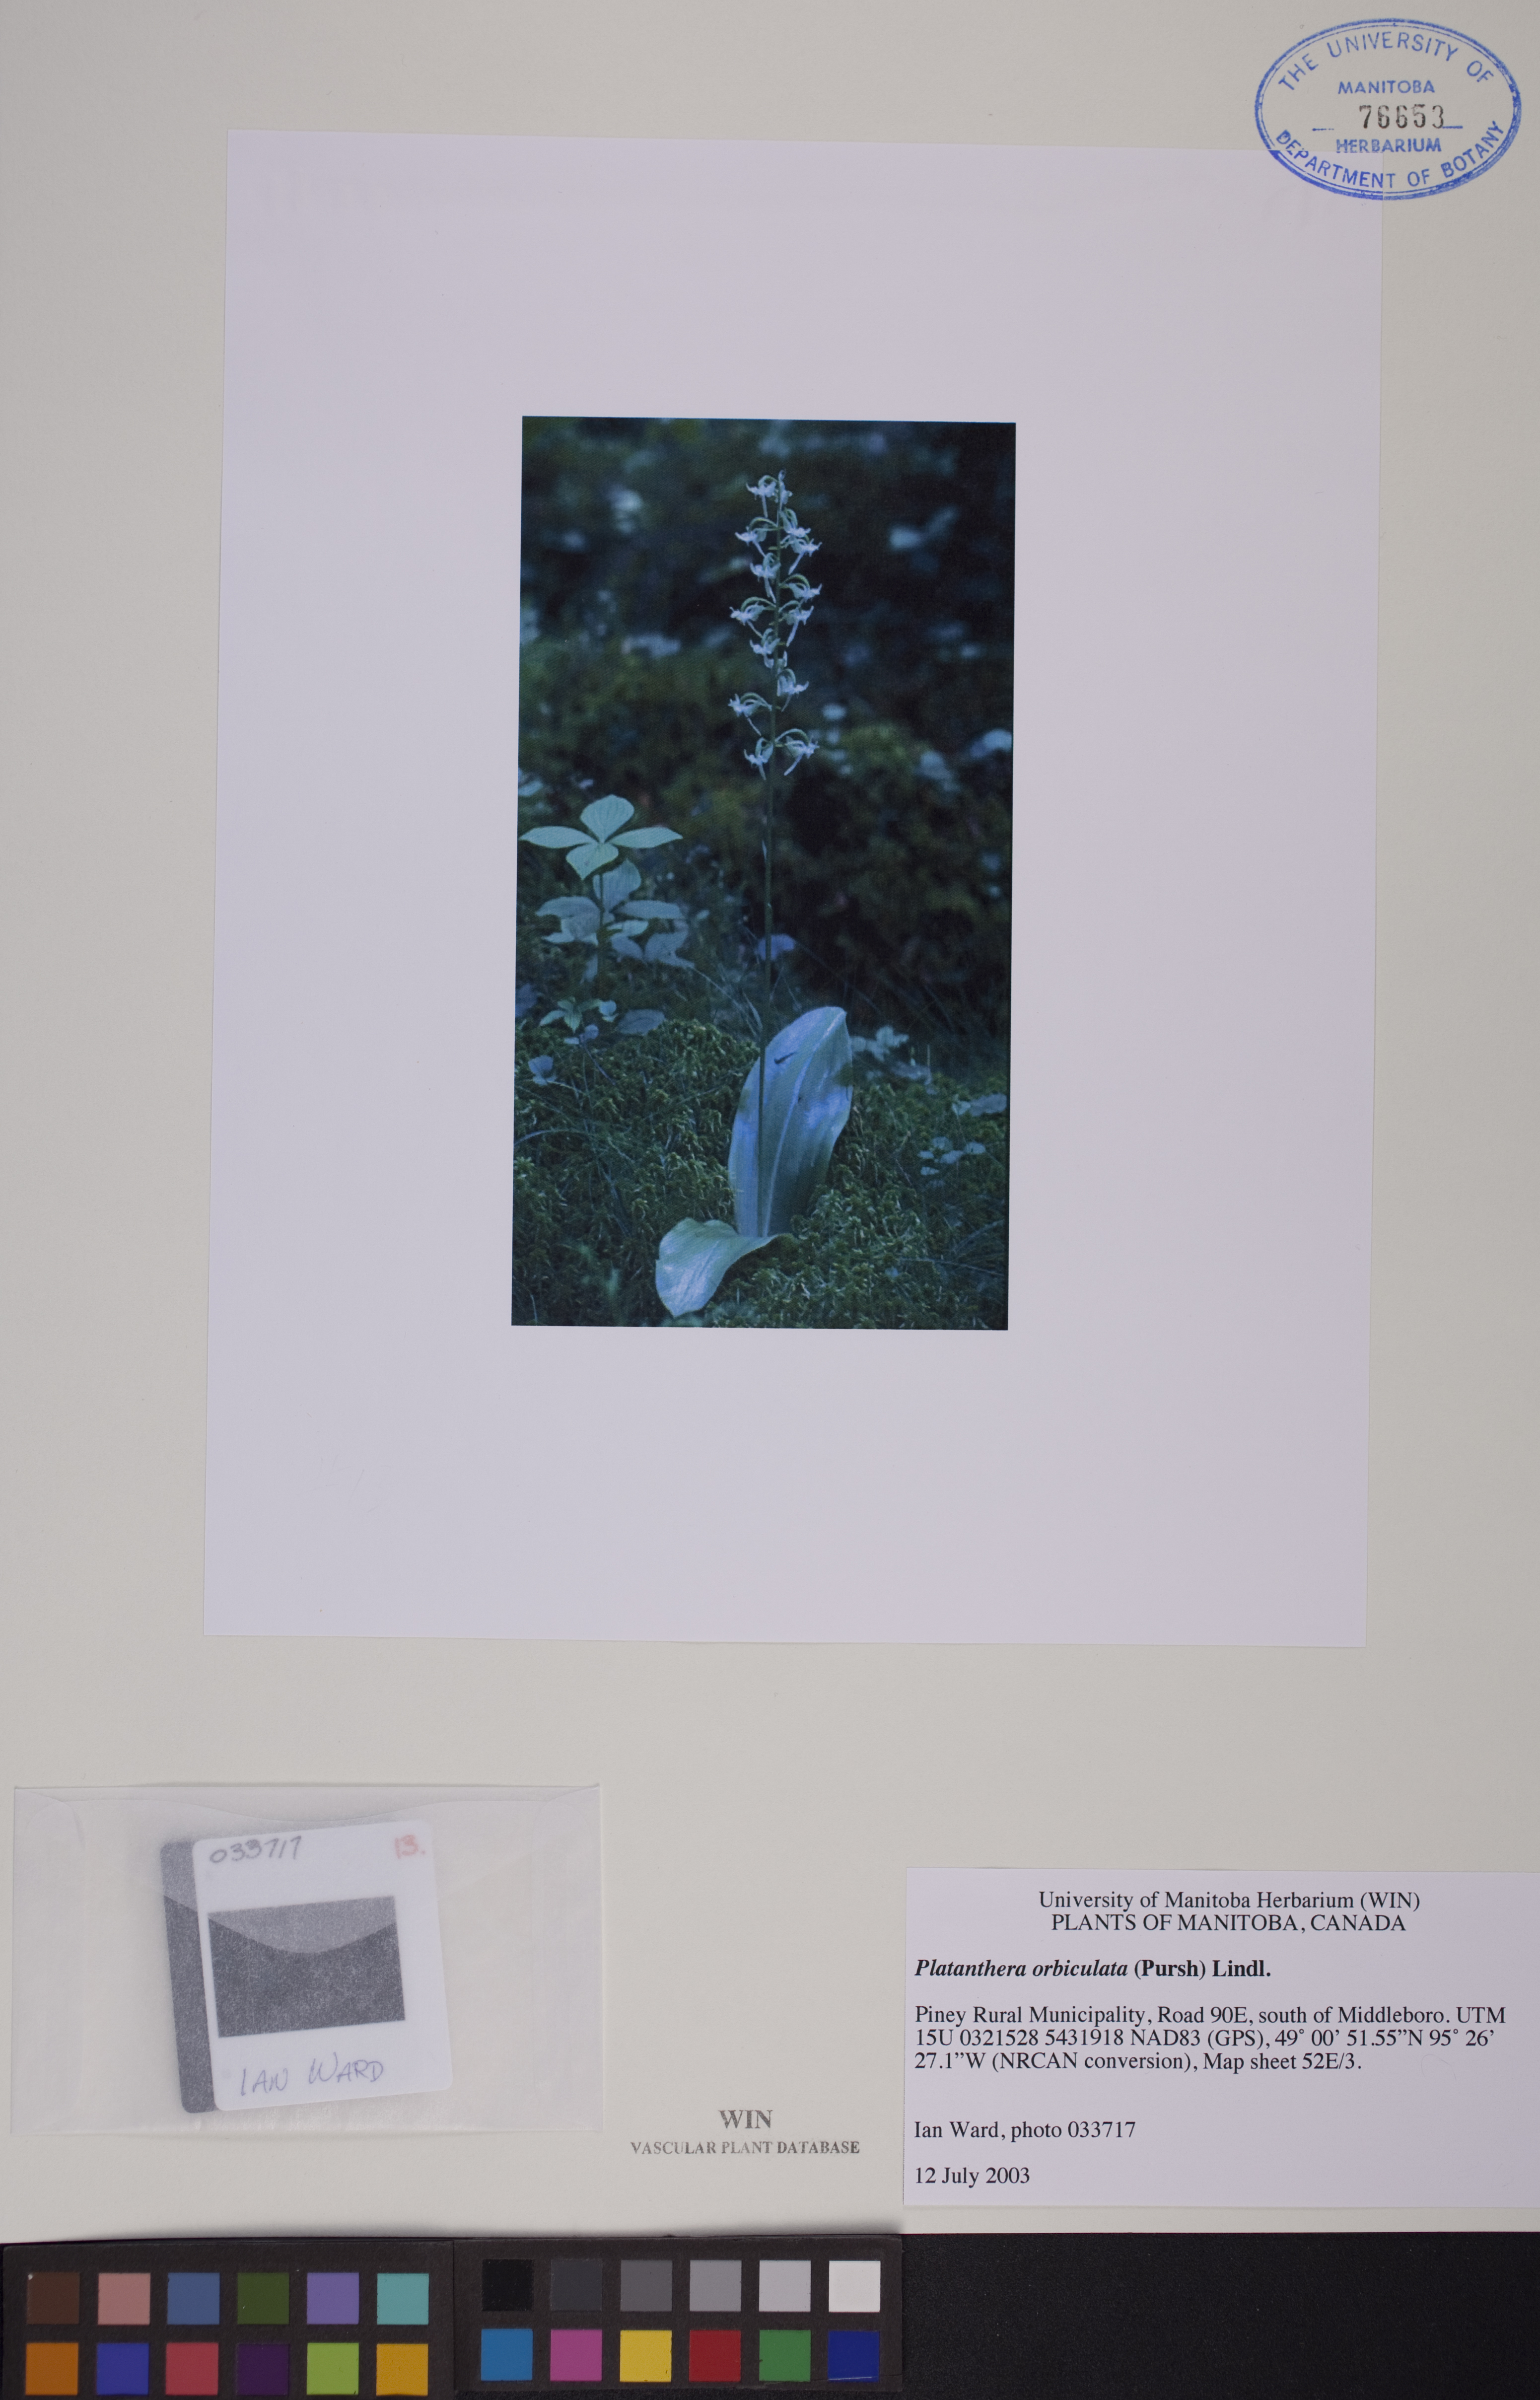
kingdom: Plantae
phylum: Tracheophyta
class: Liliopsida
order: Asparagales
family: Orchidaceae
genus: Platanthera
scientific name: Platanthera orbiculata
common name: Large round-leaved orchid
